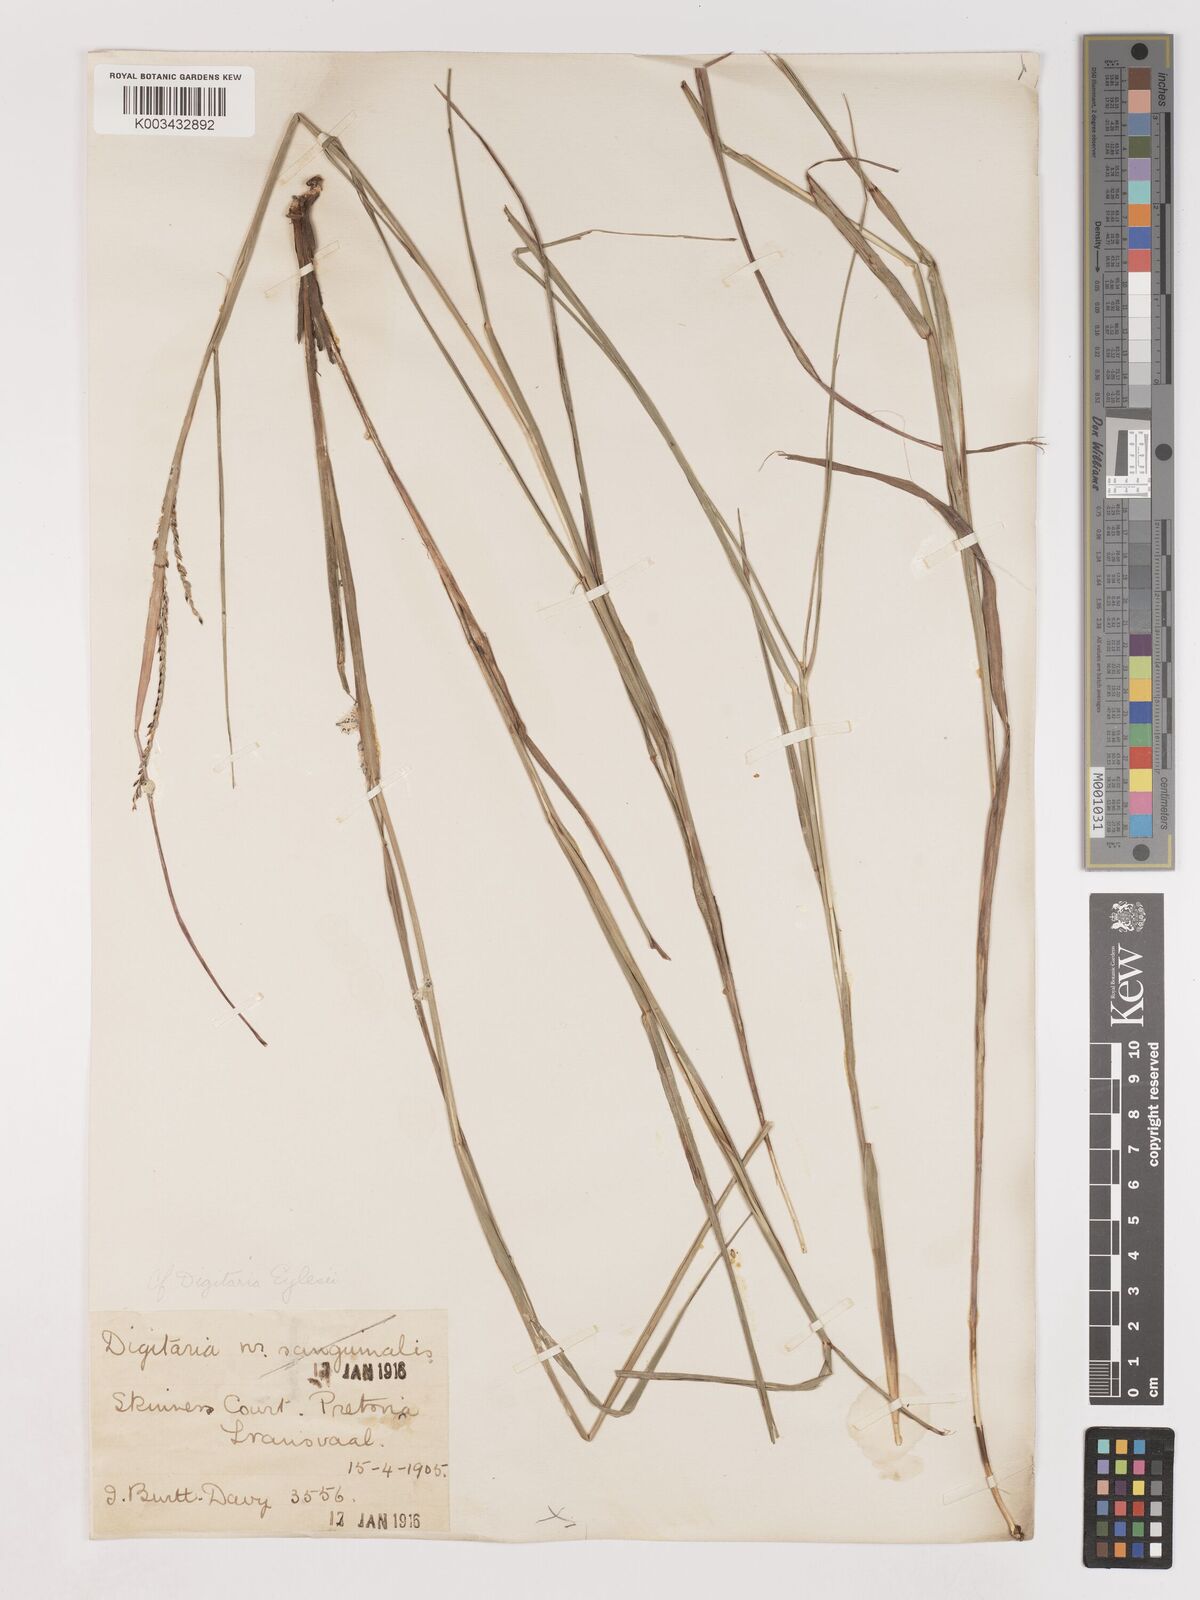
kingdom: Plantae
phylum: Tracheophyta
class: Liliopsida
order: Poales
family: Poaceae
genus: Digitaria
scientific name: Digitaria eylesii
